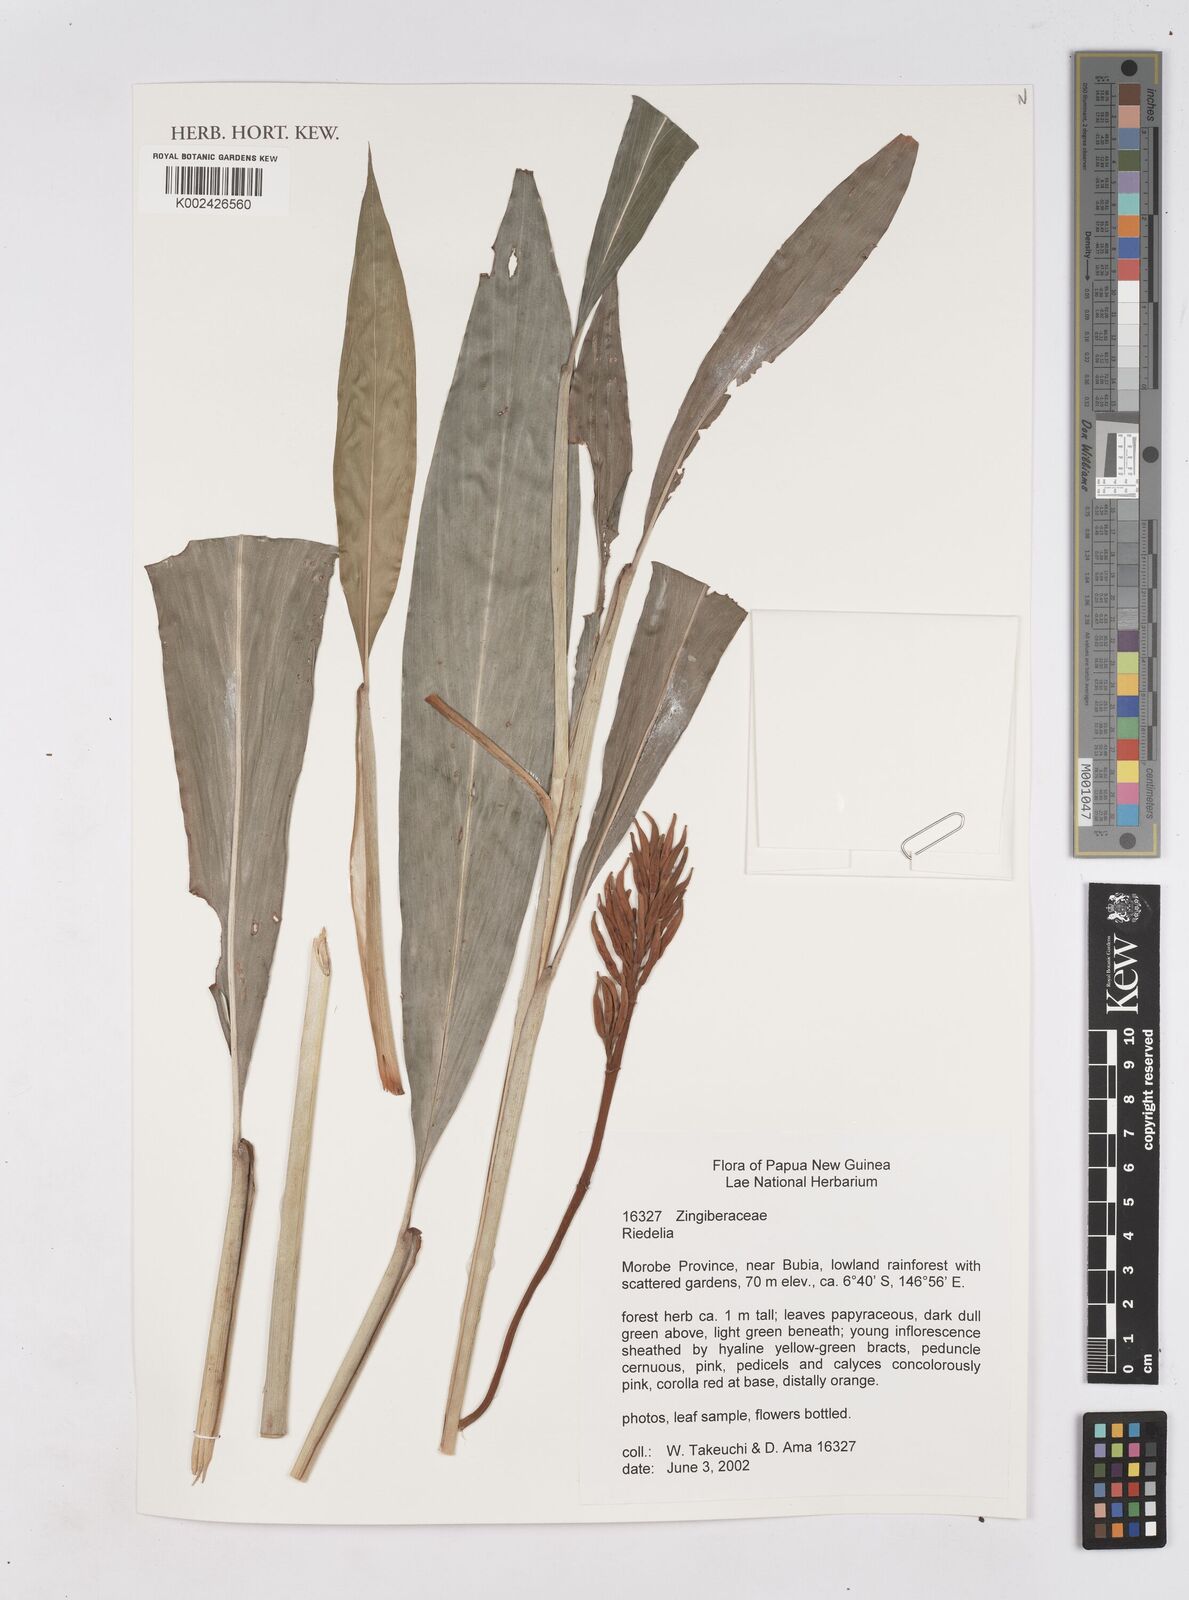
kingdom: Plantae
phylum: Tracheophyta
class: Liliopsida
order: Zingiberales
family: Zingiberaceae
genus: Riedelia
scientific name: Riedelia
